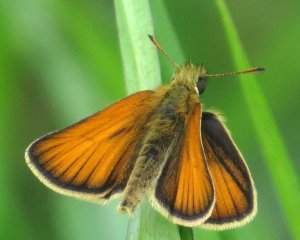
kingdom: Animalia
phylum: Arthropoda
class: Insecta
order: Lepidoptera
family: Hesperiidae
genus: Thymelicus
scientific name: Thymelicus lineola
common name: European Skipper
